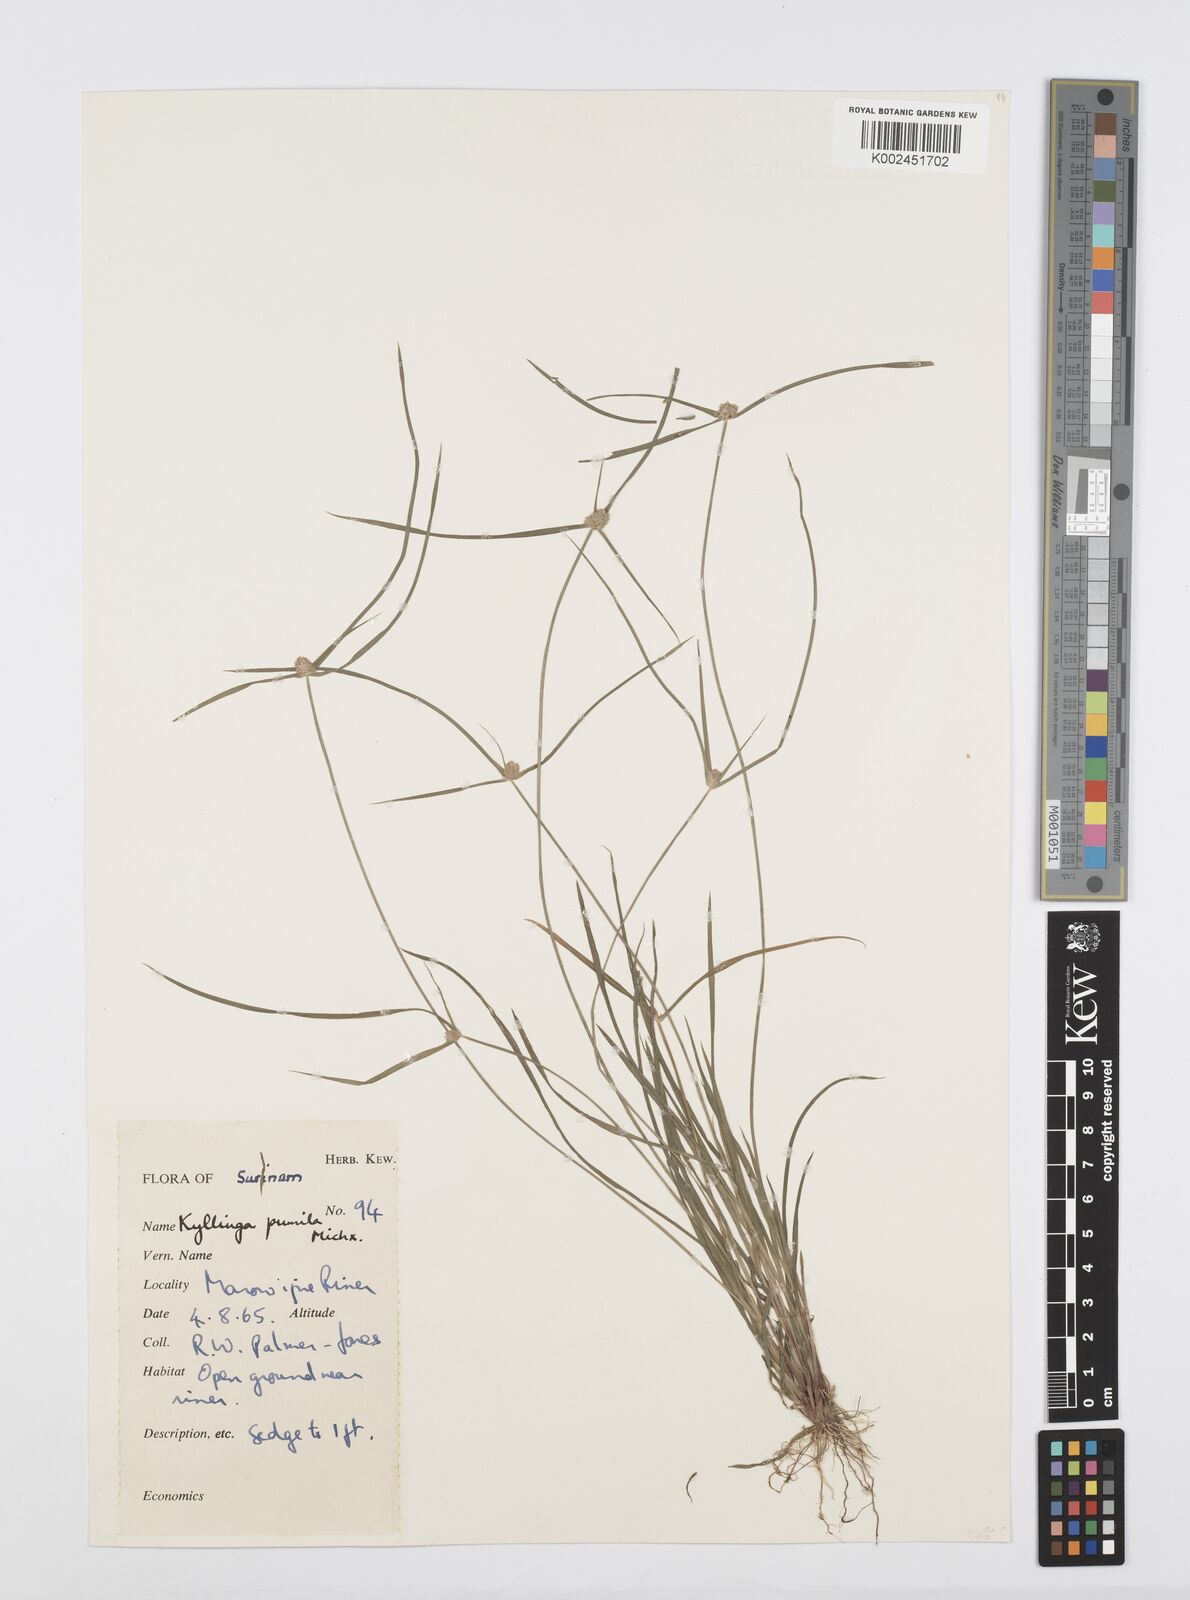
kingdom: Plantae
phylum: Tracheophyta
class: Liliopsida
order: Poales
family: Cyperaceae
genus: Cyperus
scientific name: Cyperus
